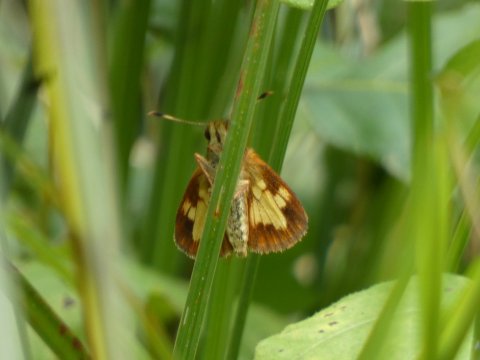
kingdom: Animalia
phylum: Arthropoda
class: Insecta
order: Lepidoptera
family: Hesperiidae
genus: Poanes
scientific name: Poanes massasoit
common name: Mulberry Wing
